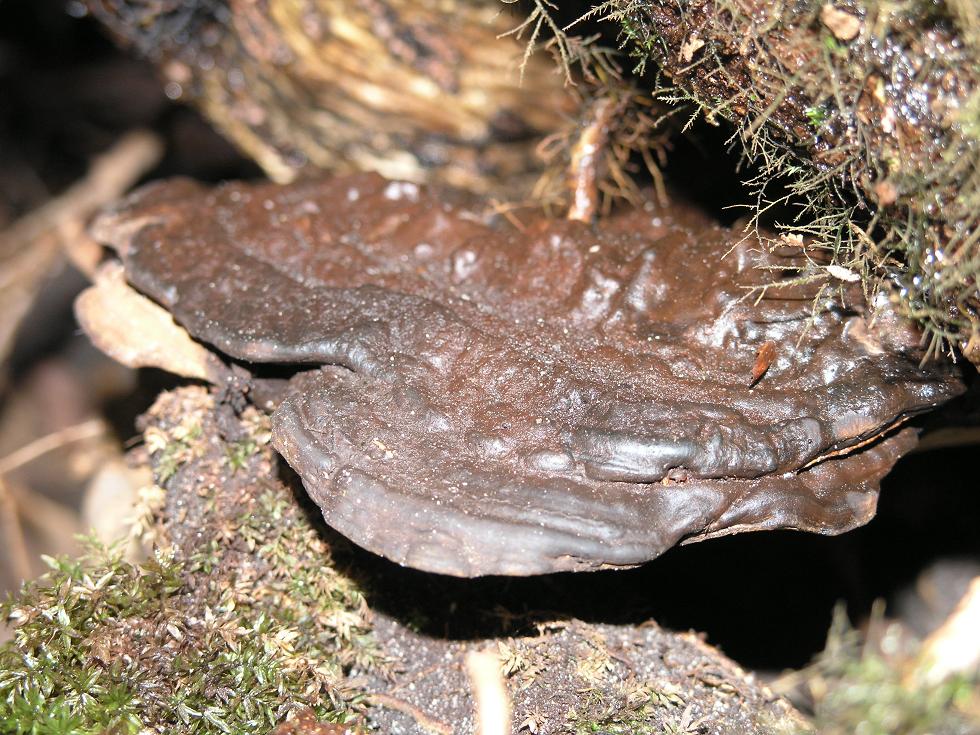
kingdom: Fungi
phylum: Basidiomycota
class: Agaricomycetes
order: Polyporales
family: Polyporaceae
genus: Ganoderma
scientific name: Ganoderma applanatum
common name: flad lakporesvamp
